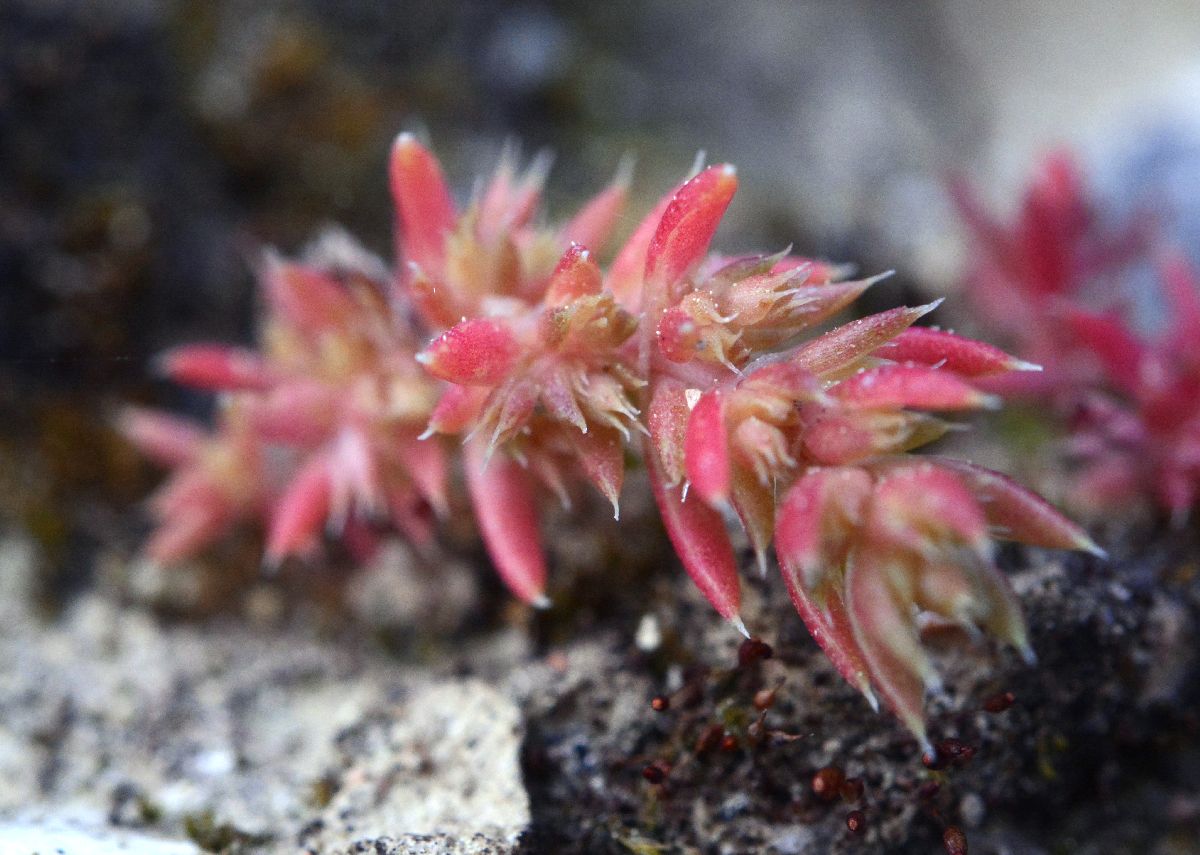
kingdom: Plantae
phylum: Tracheophyta
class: Magnoliopsida
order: Saxifragales
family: Crassulaceae
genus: Crassula
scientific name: Crassula alata
